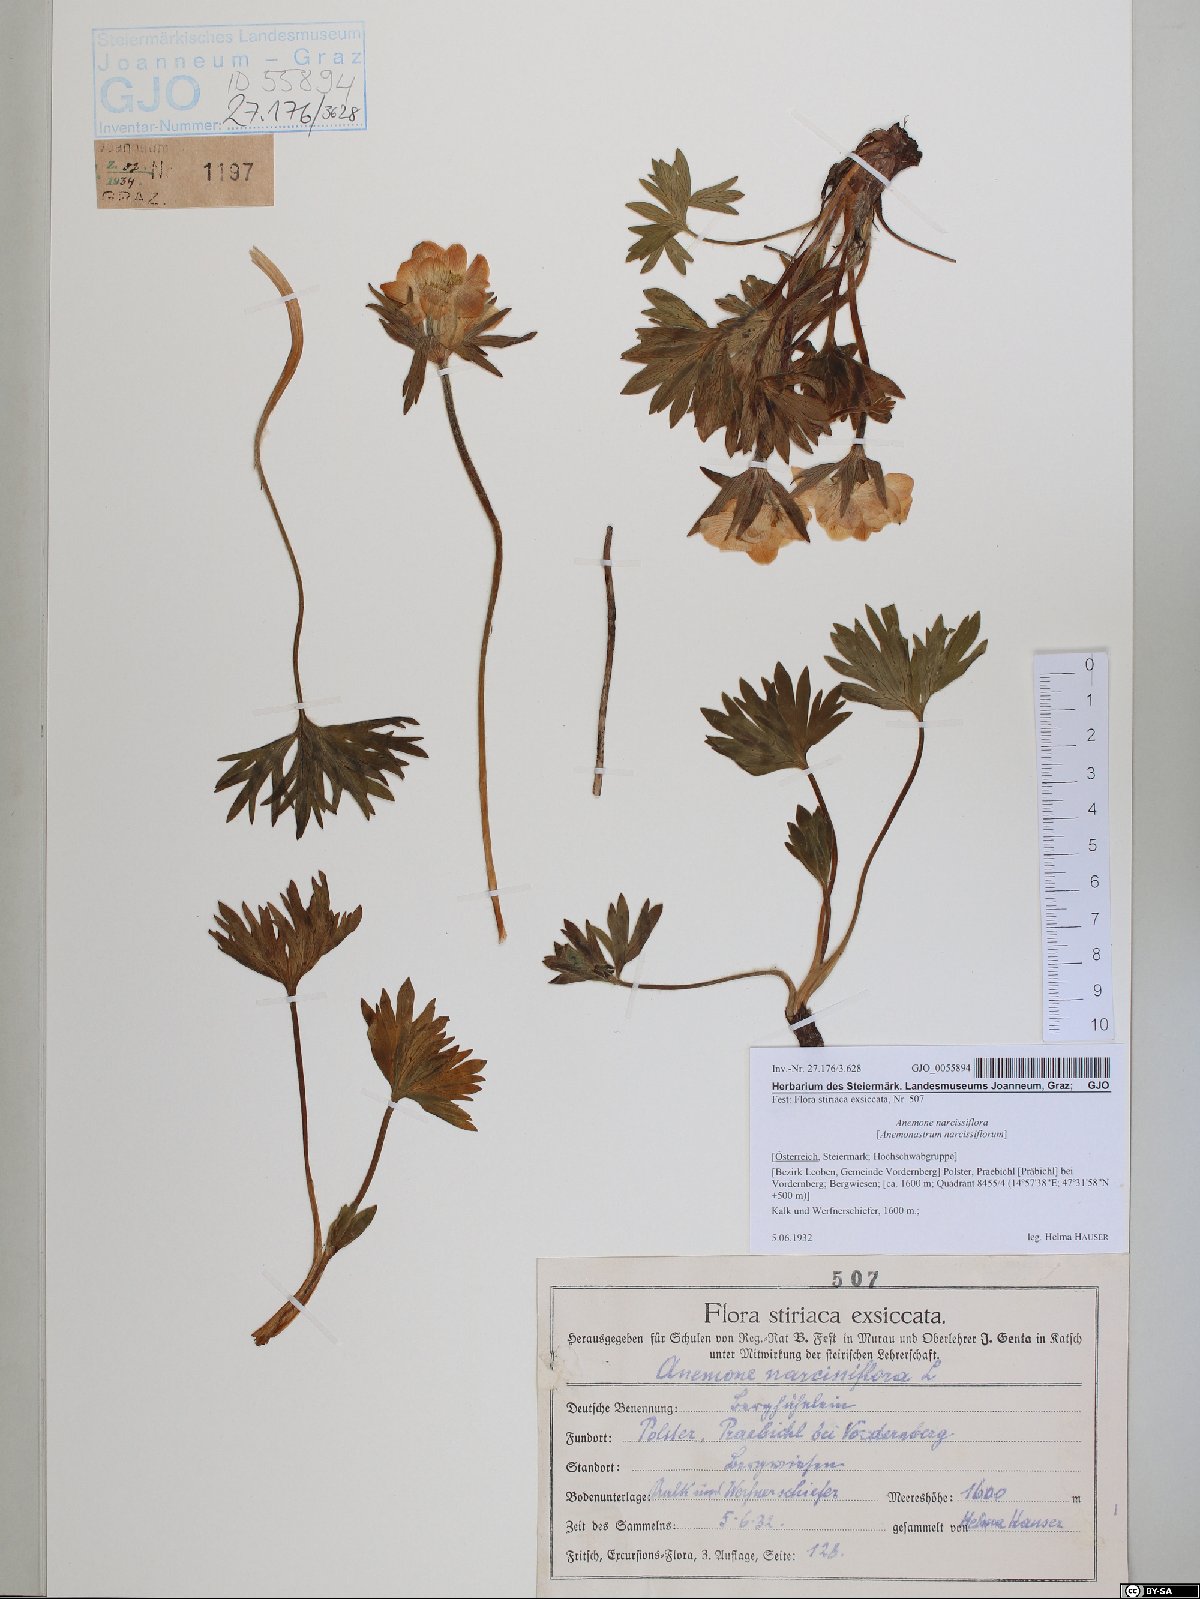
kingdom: Plantae
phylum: Tracheophyta
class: Magnoliopsida
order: Ranunculales
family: Ranunculaceae
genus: Anemonastrum
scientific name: Anemonastrum narcissiflorum
